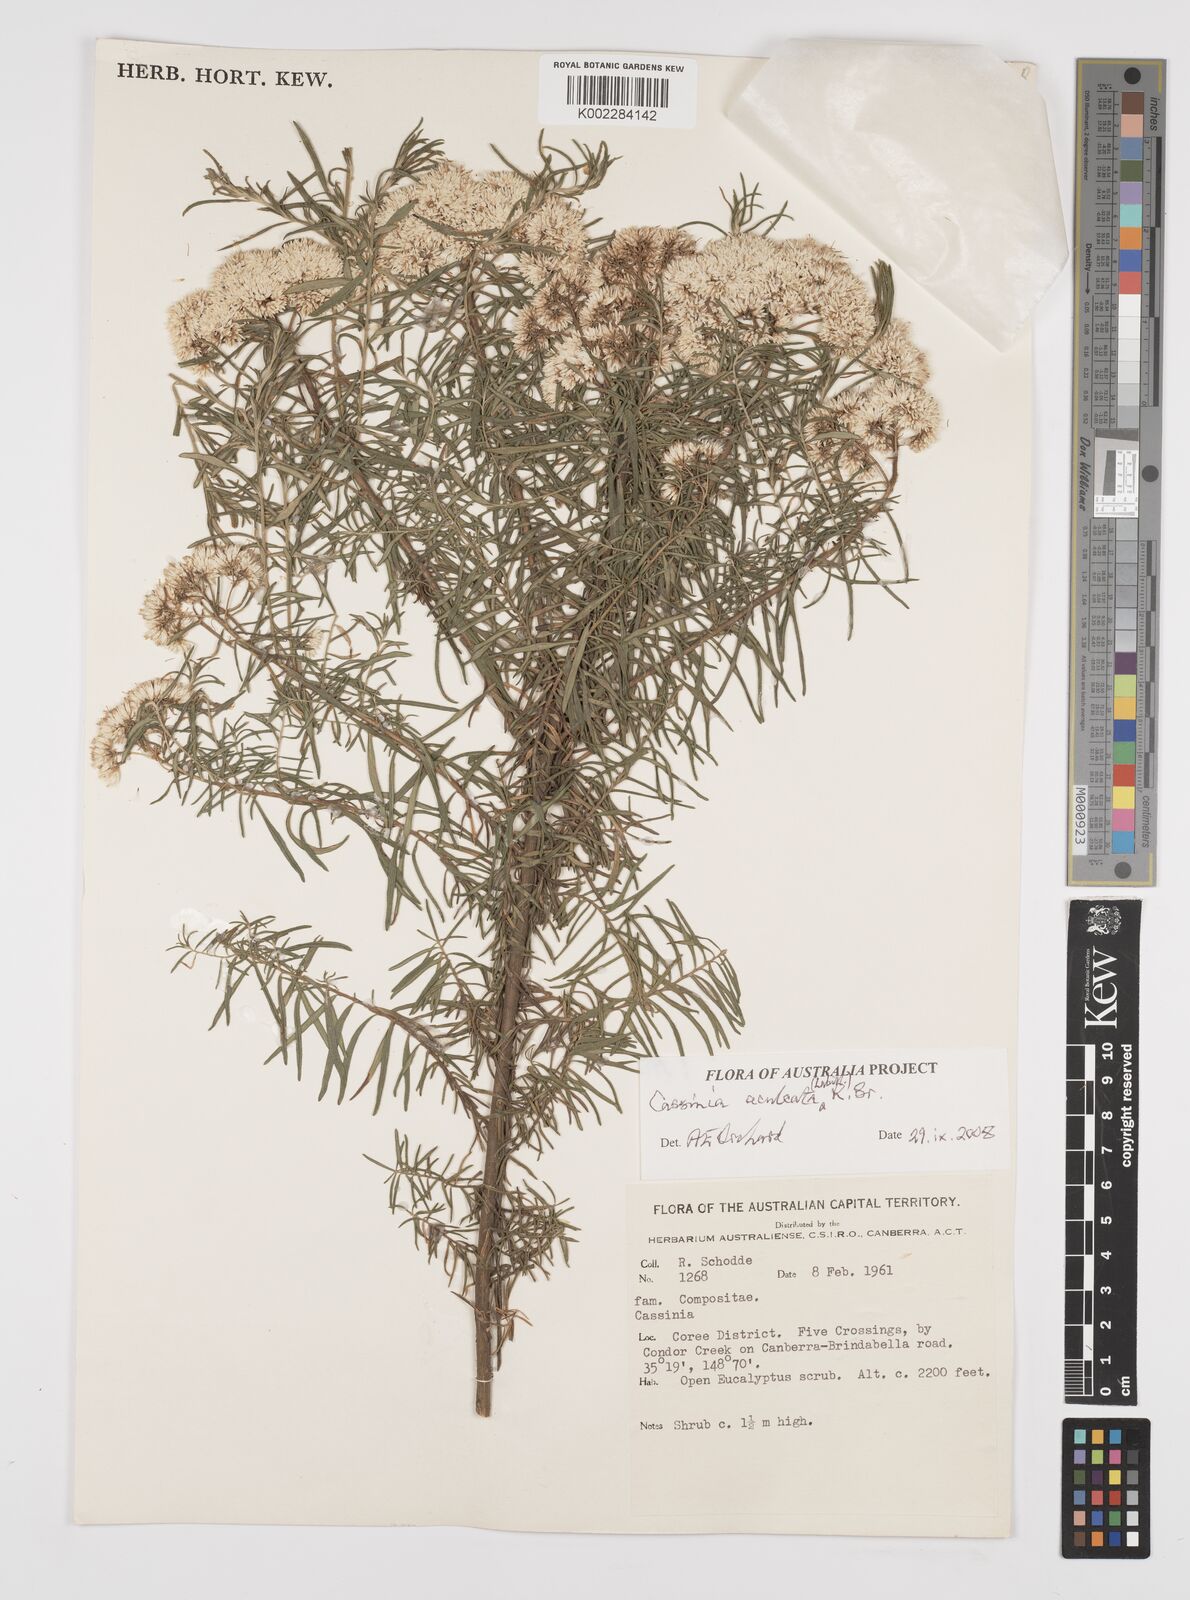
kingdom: Plantae
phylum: Tracheophyta
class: Magnoliopsida
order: Asterales
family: Asteraceae
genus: Cassinia
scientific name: Cassinia aculeata
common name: Australian tauhinu
